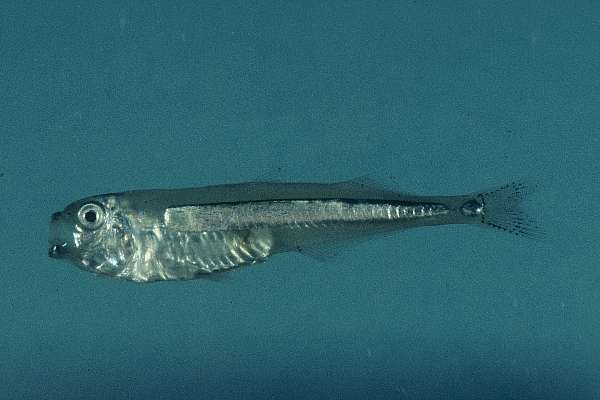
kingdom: Animalia
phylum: Chordata
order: Atheriniformes
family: Isonidae
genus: Iso
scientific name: Iso natalensis
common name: Surf sprite
